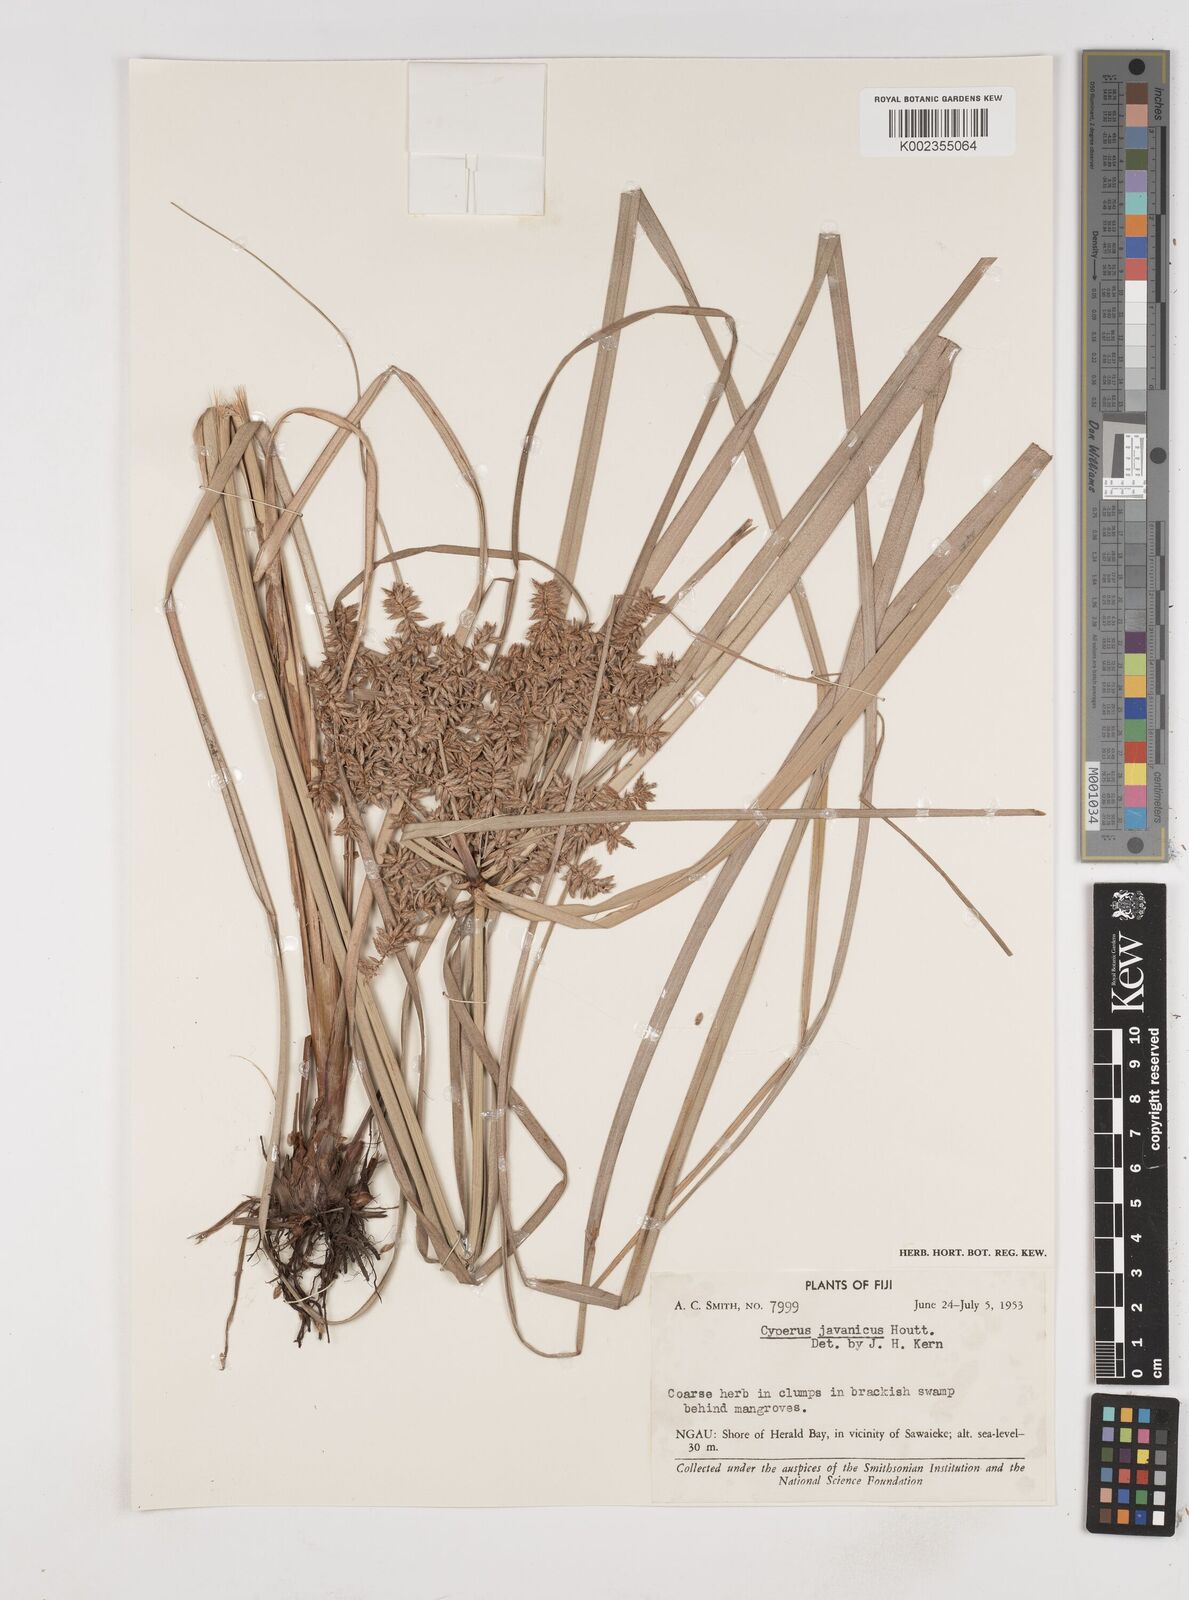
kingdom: Plantae
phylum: Tracheophyta
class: Liliopsida
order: Poales
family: Cyperaceae
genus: Cyperus
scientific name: Cyperus javanicus
